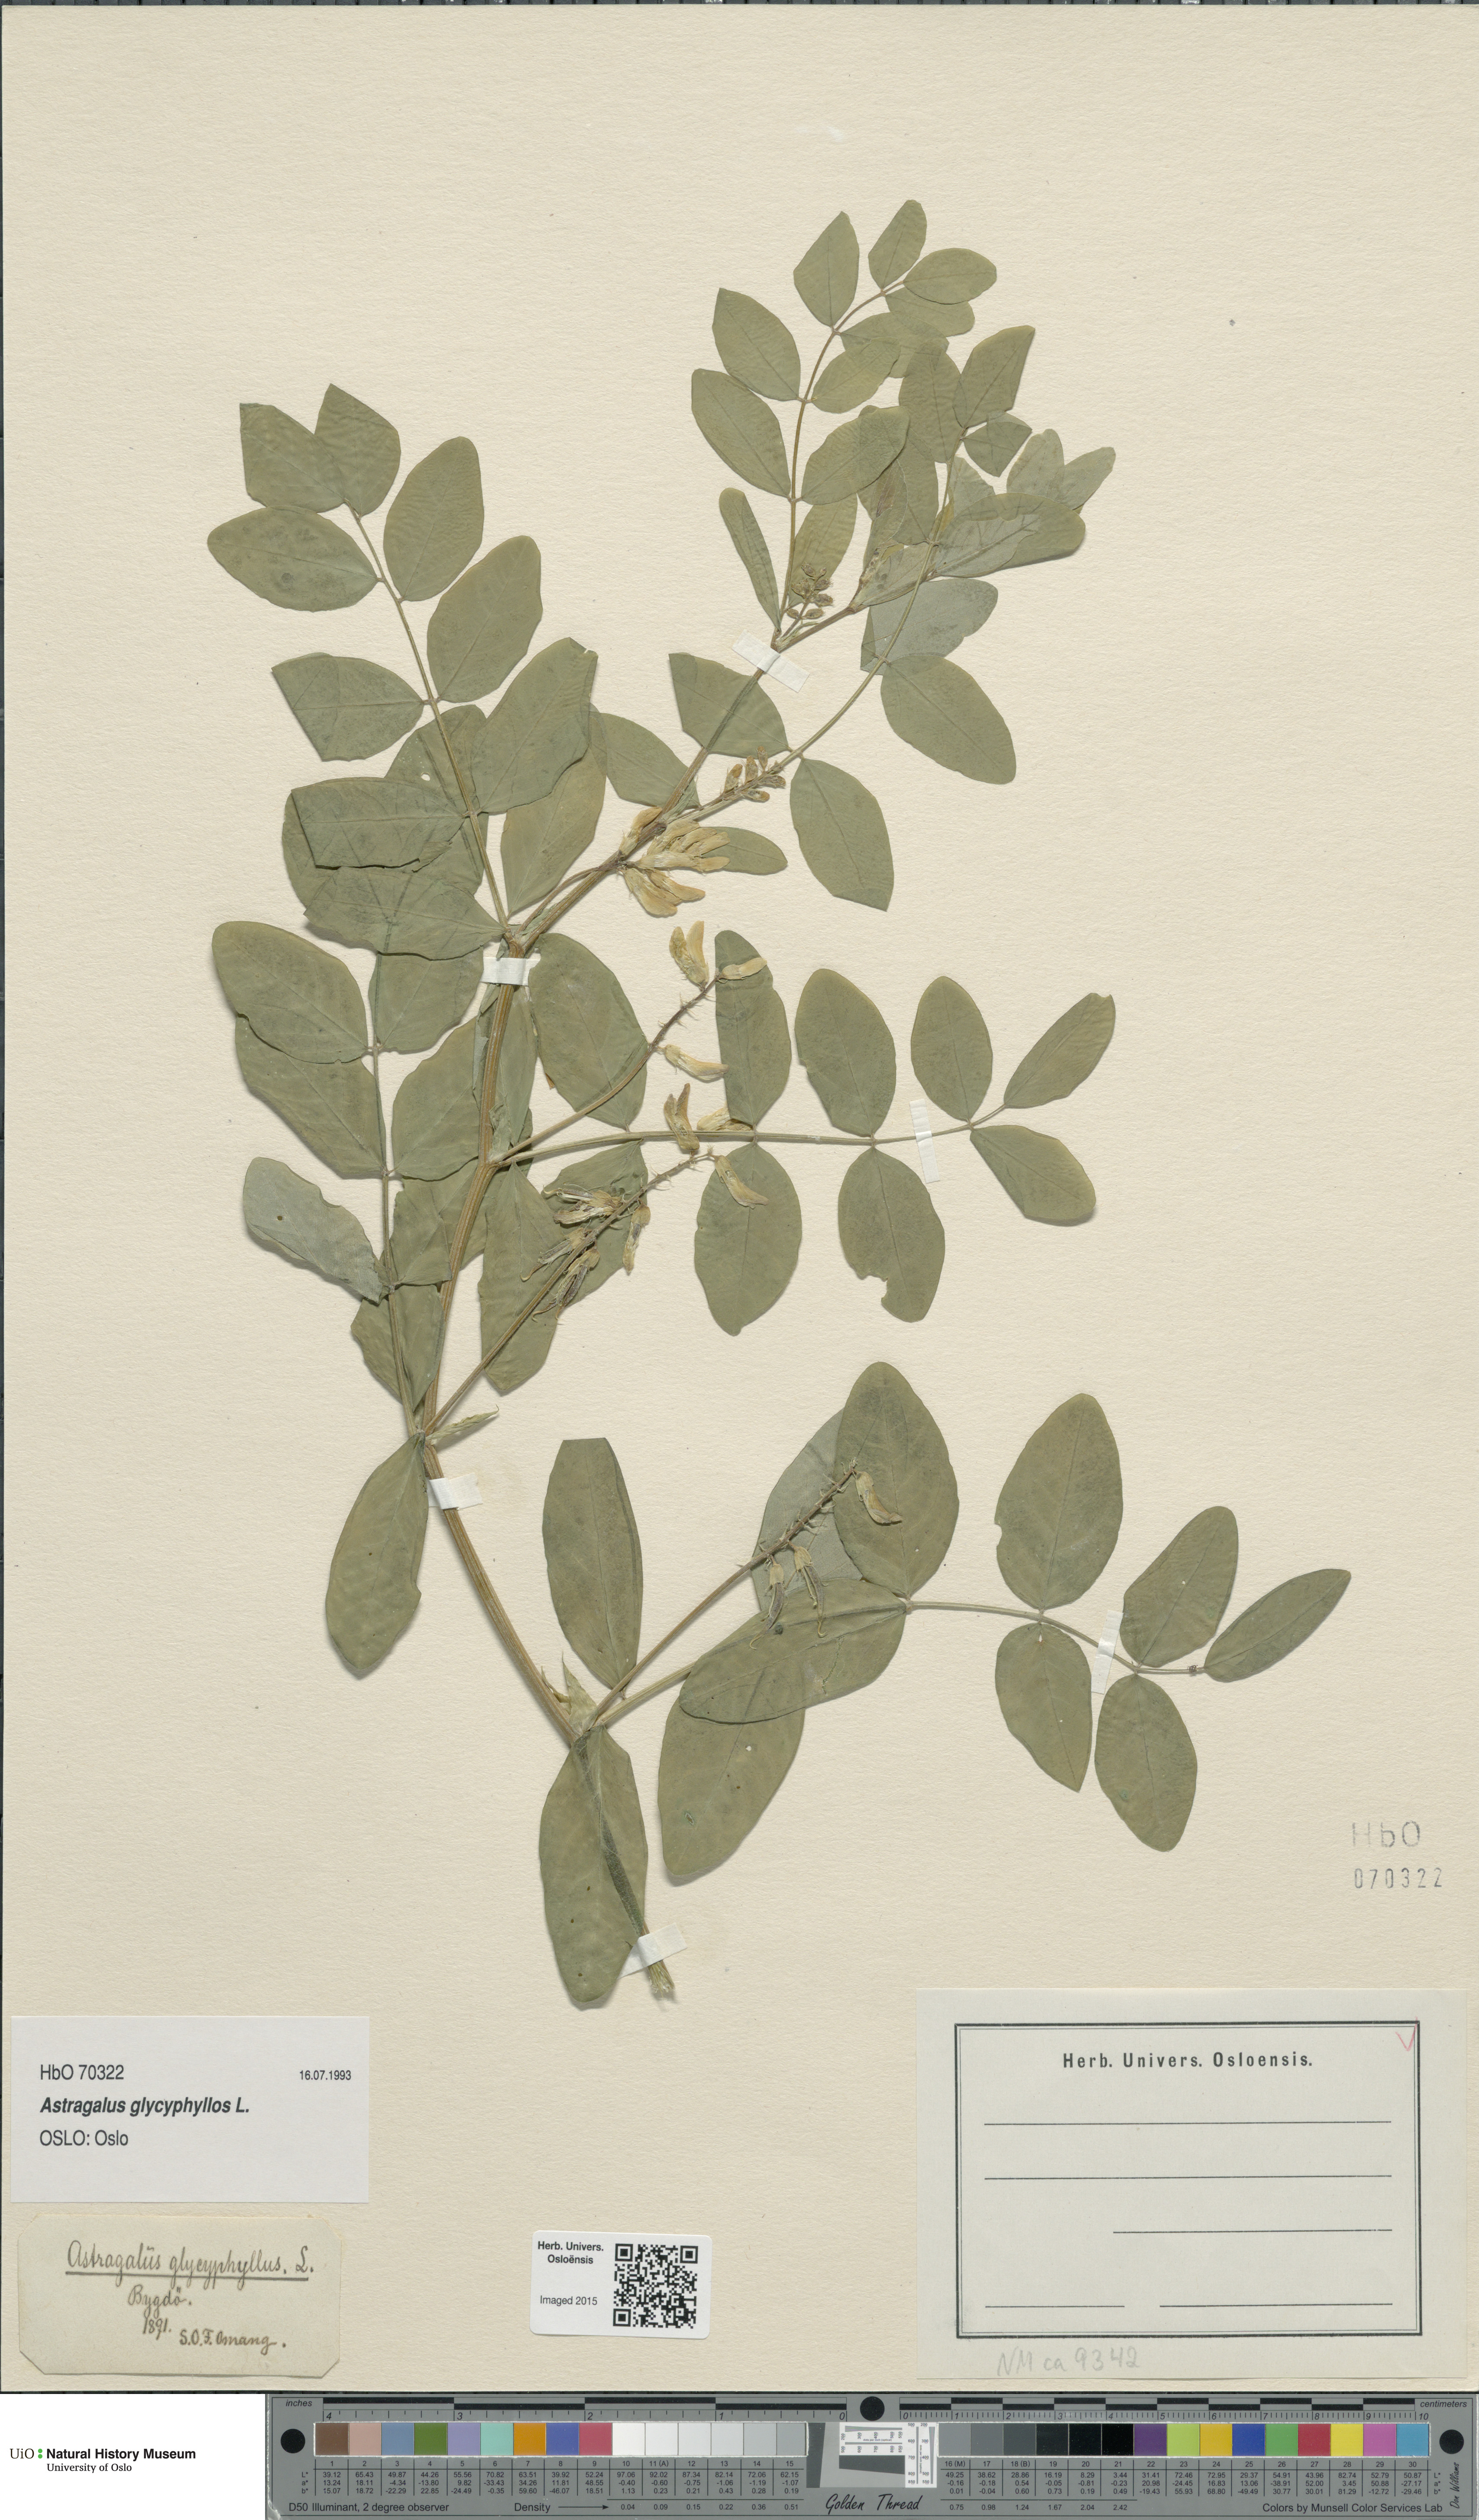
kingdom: Plantae
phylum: Tracheophyta
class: Magnoliopsida
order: Fabales
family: Fabaceae
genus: Astragalus
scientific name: Astragalus glycyphyllos
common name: Wild liquorice
